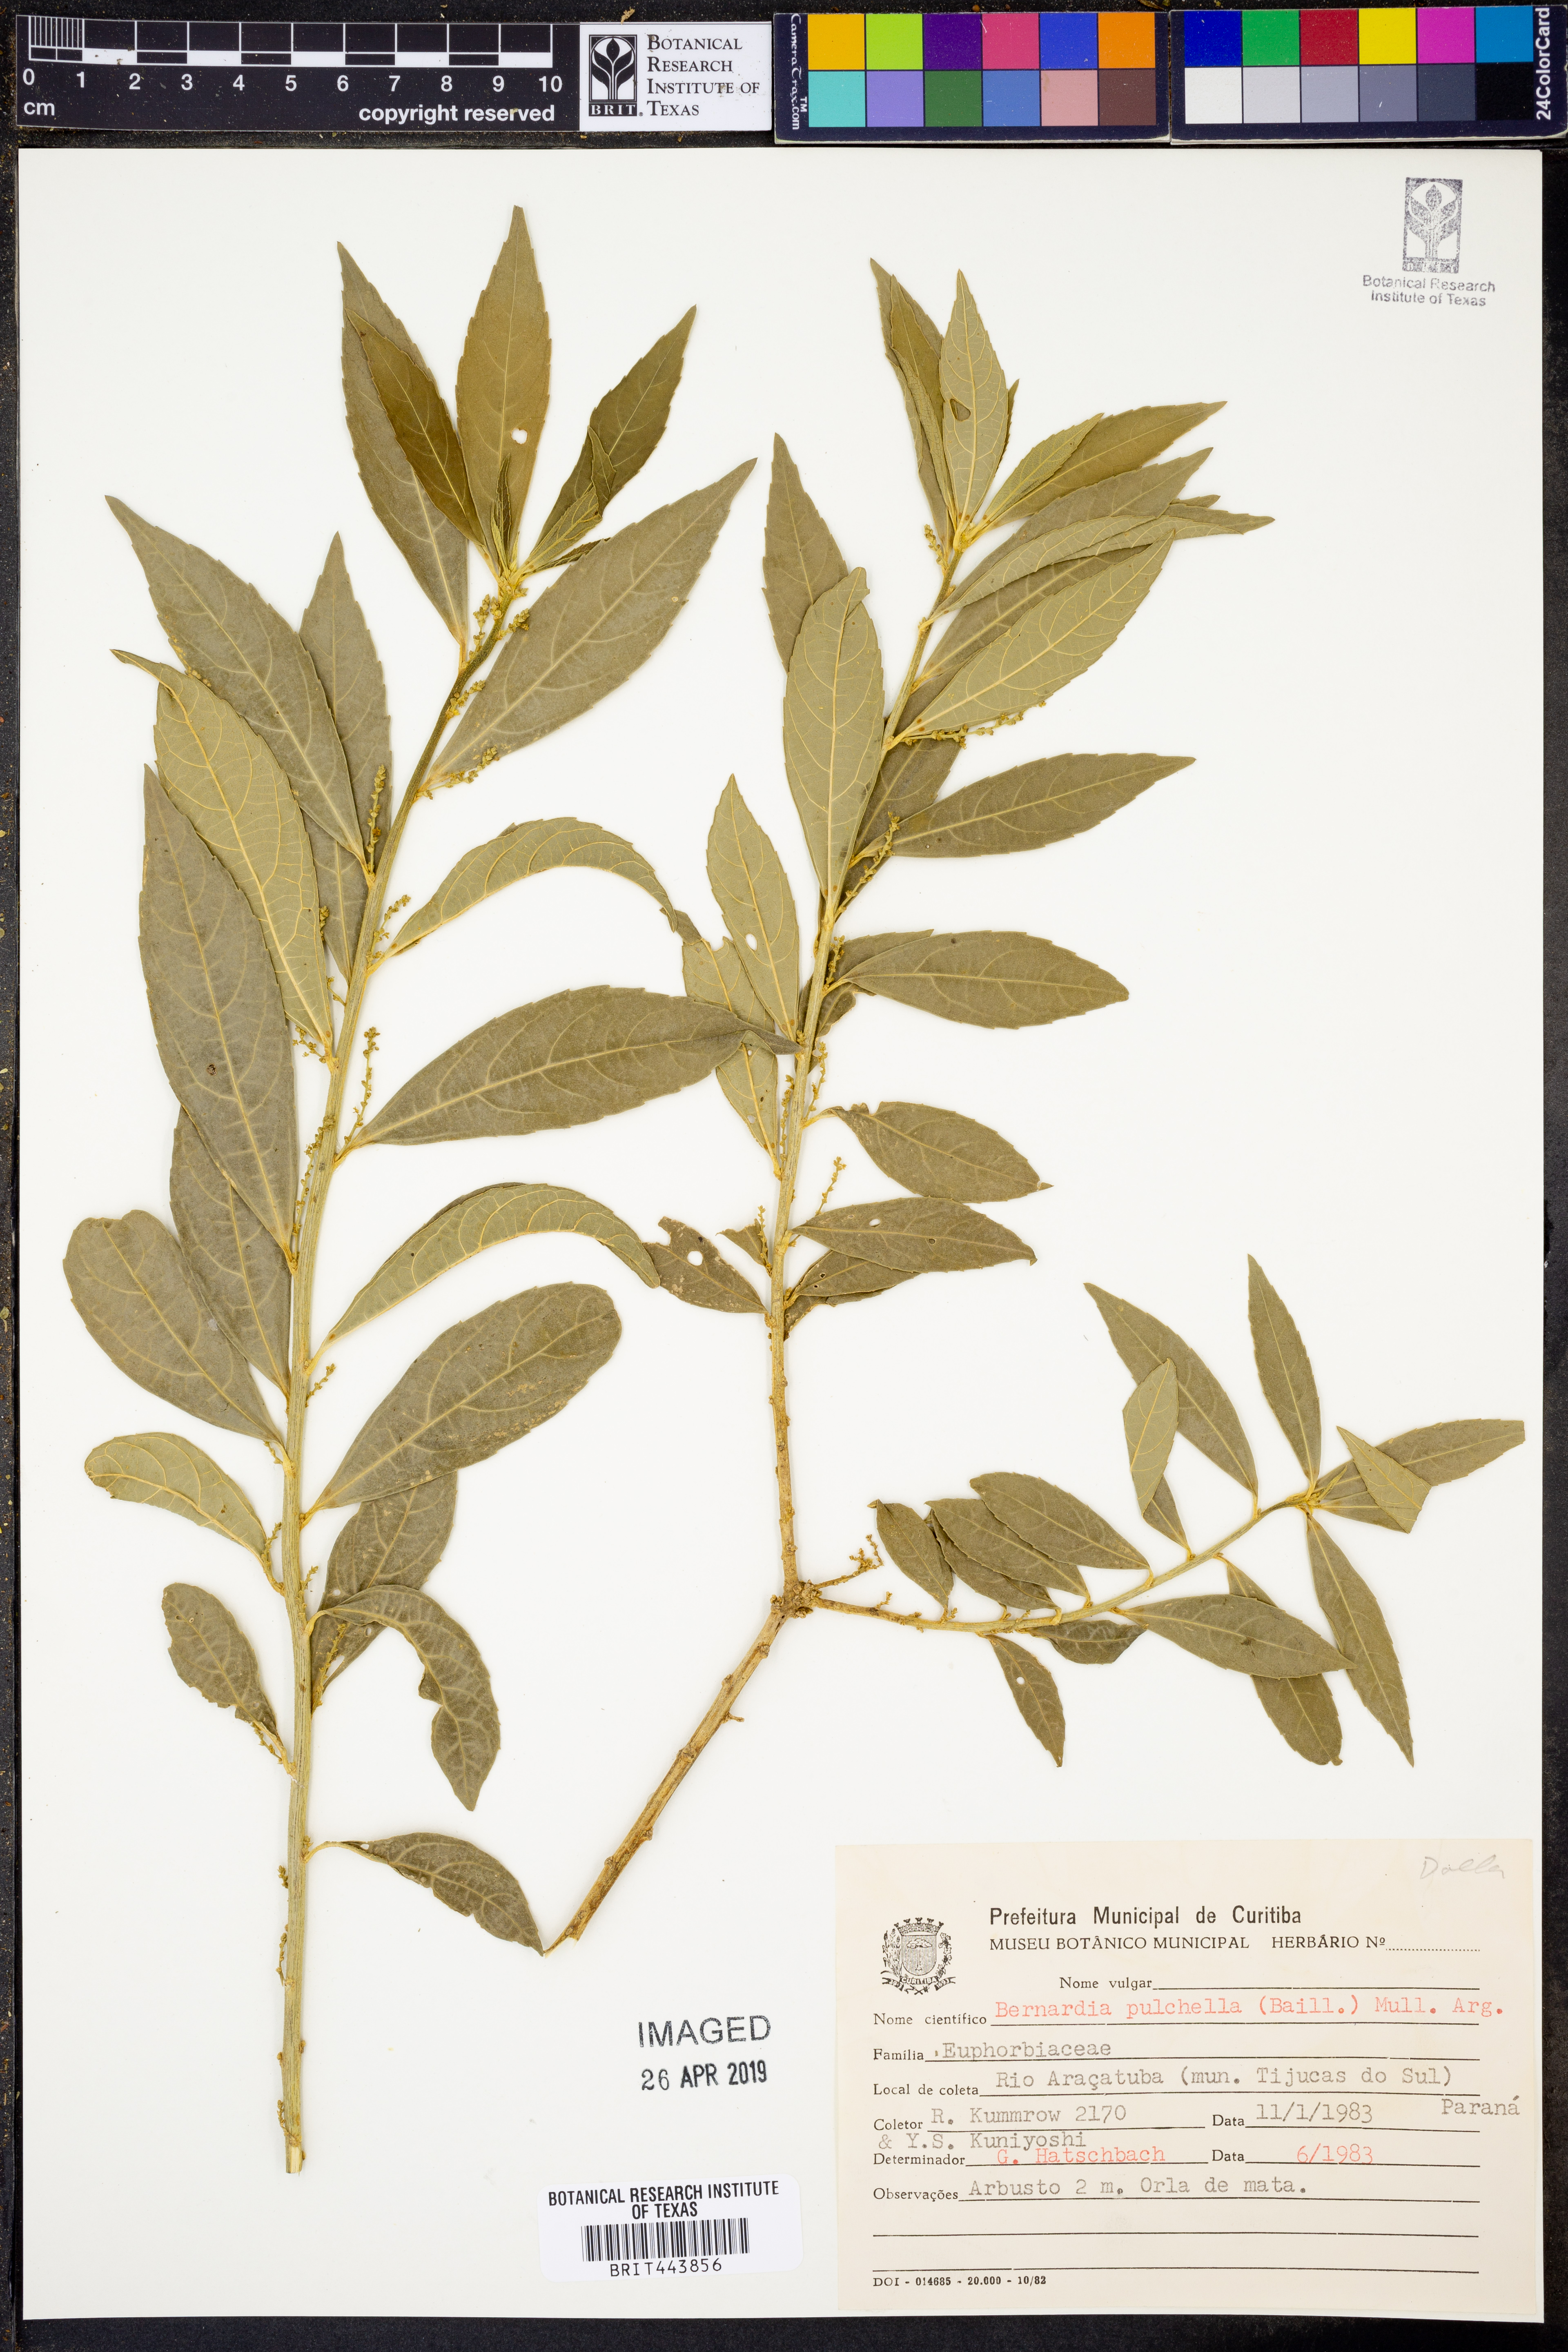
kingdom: Plantae
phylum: Tracheophyta
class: Magnoliopsida
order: Malpighiales
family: Euphorbiaceae
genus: Bernardia
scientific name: Bernardia pulchella
